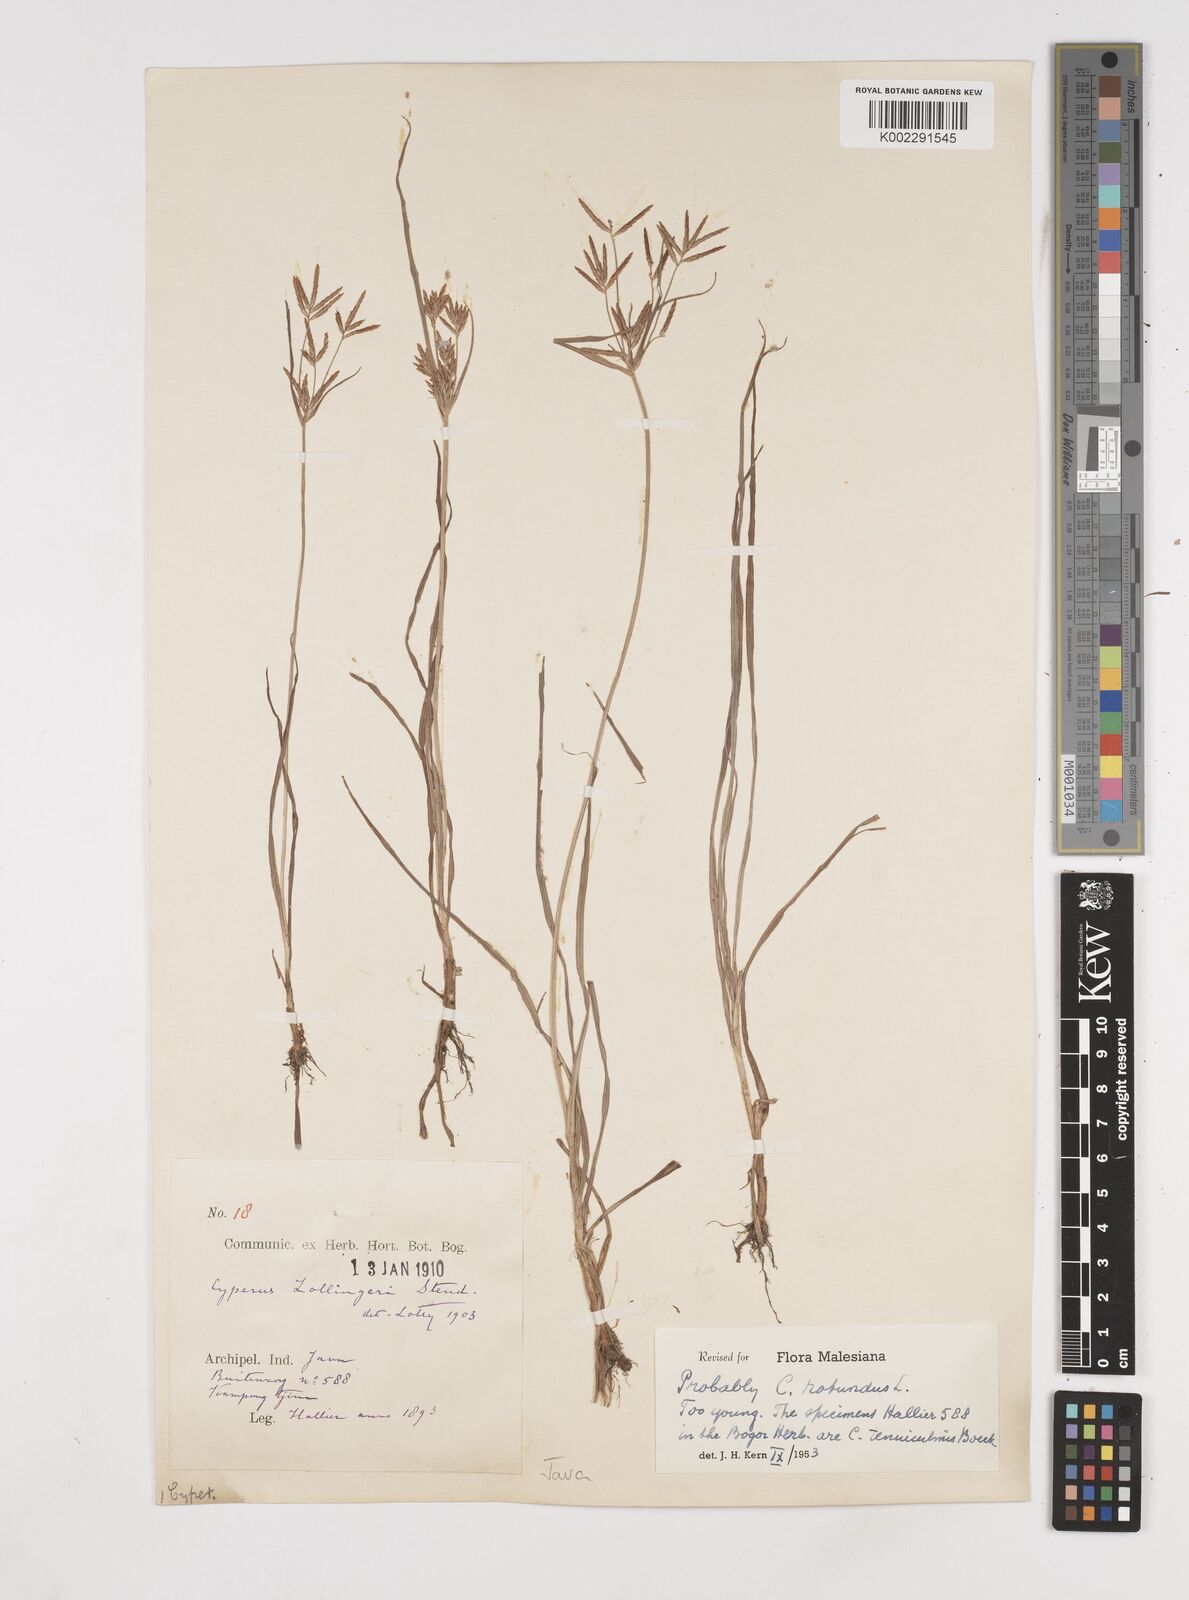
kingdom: Plantae
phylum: Tracheophyta
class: Liliopsida
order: Poales
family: Cyperaceae
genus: Cyperus
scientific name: Cyperus rotundus
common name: Nutgrass
